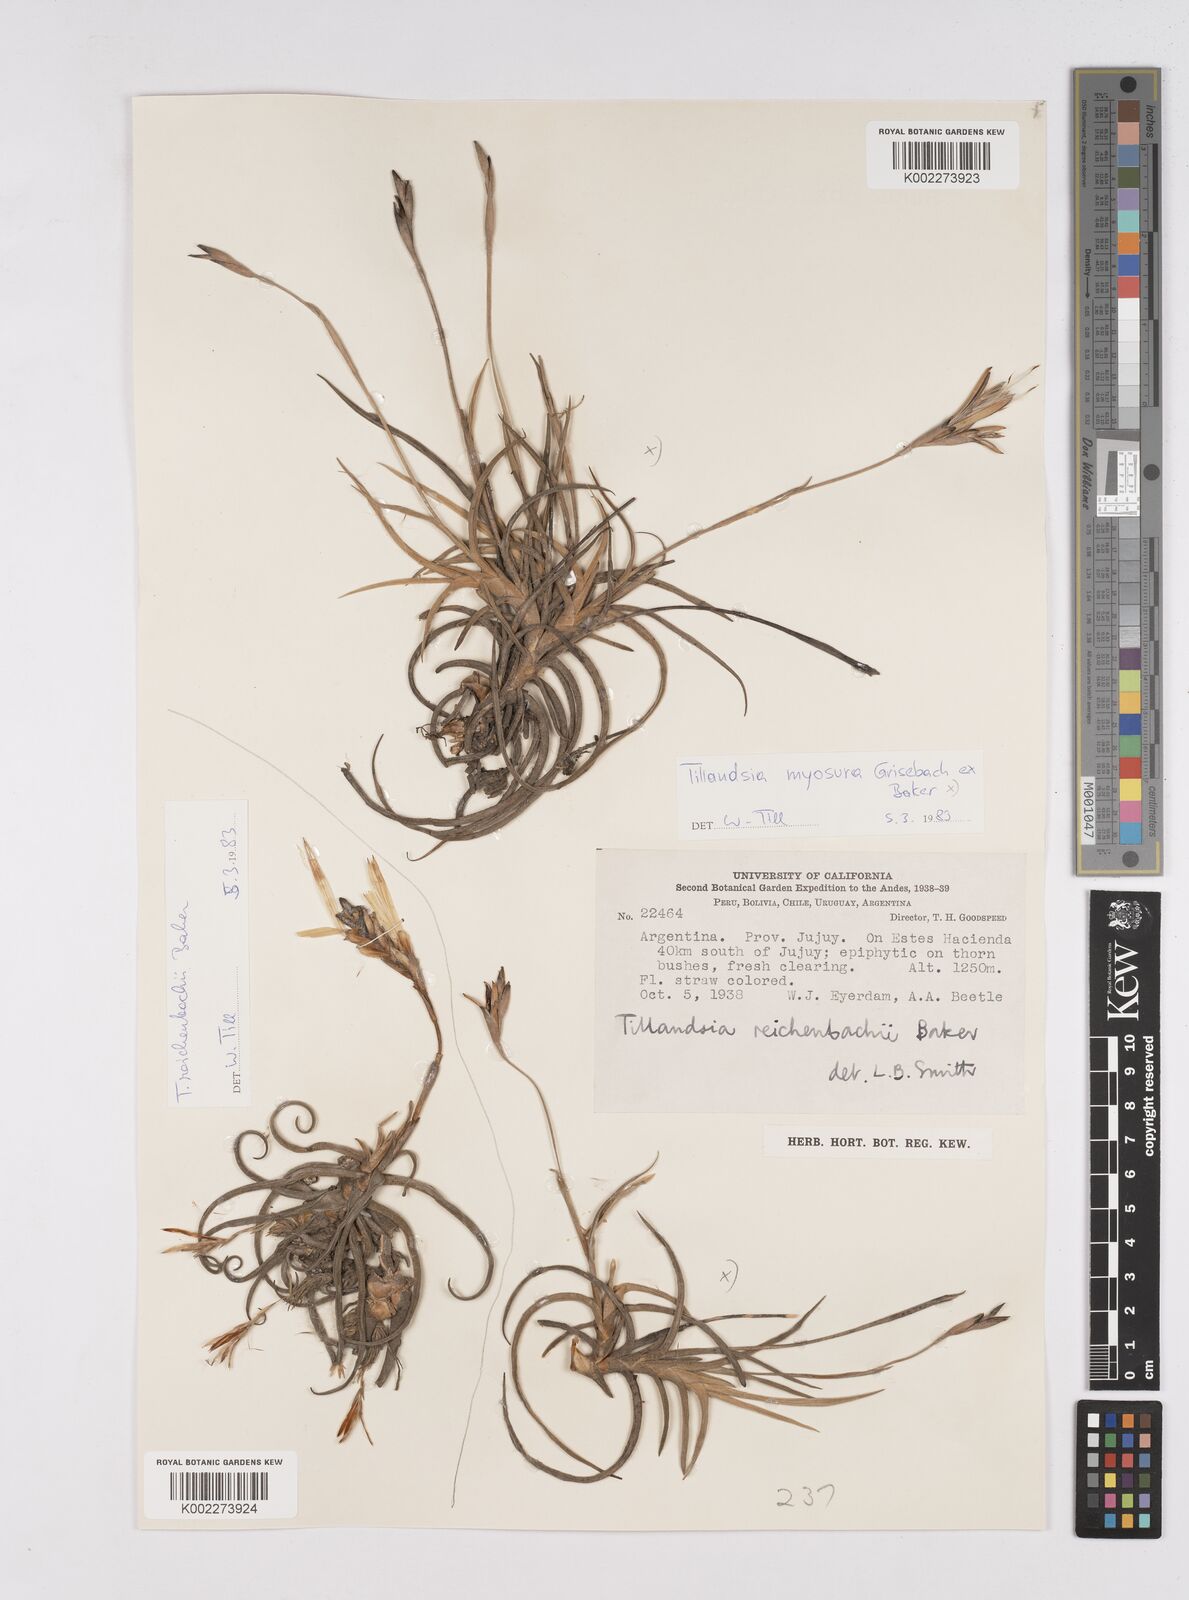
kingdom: Plantae
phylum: Tracheophyta
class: Liliopsida
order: Poales
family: Bromeliaceae
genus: Tillandsia
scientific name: Tillandsia myosura
